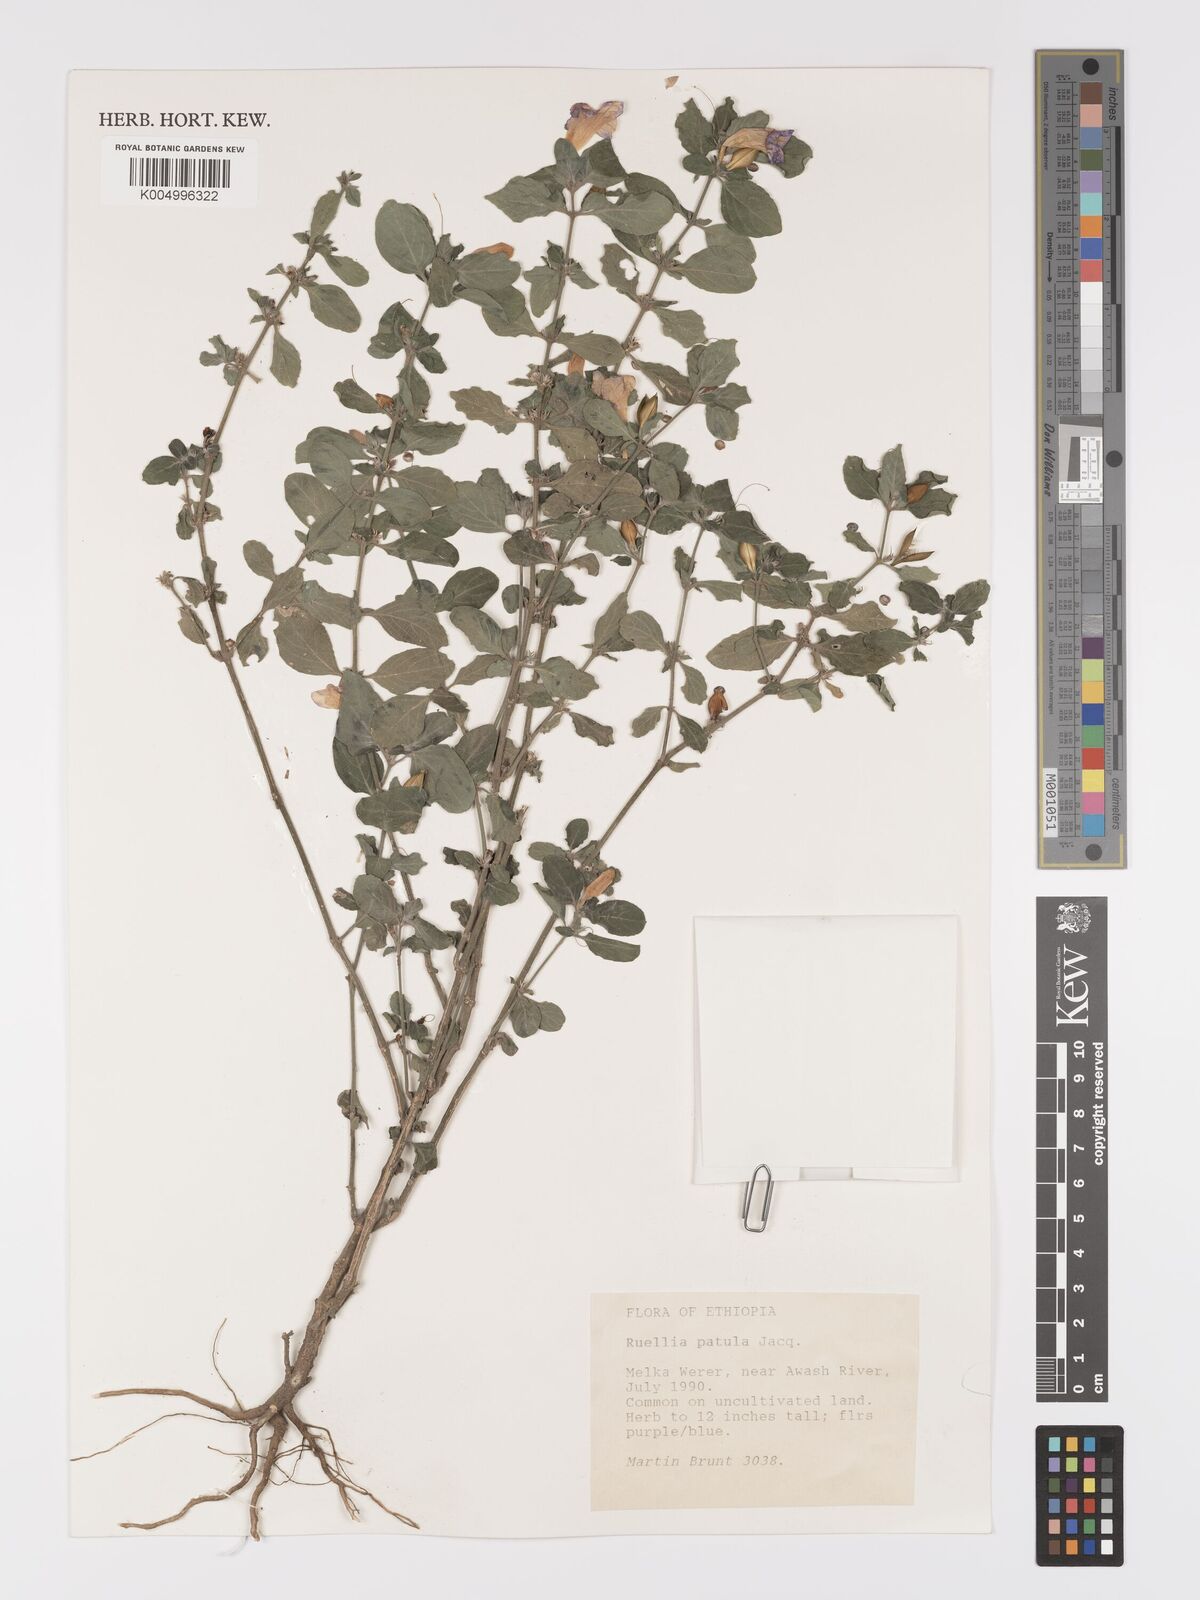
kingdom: Plantae
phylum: Tracheophyta
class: Magnoliopsida
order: Lamiales
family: Acanthaceae
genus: Ruellia
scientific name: Ruellia patula
